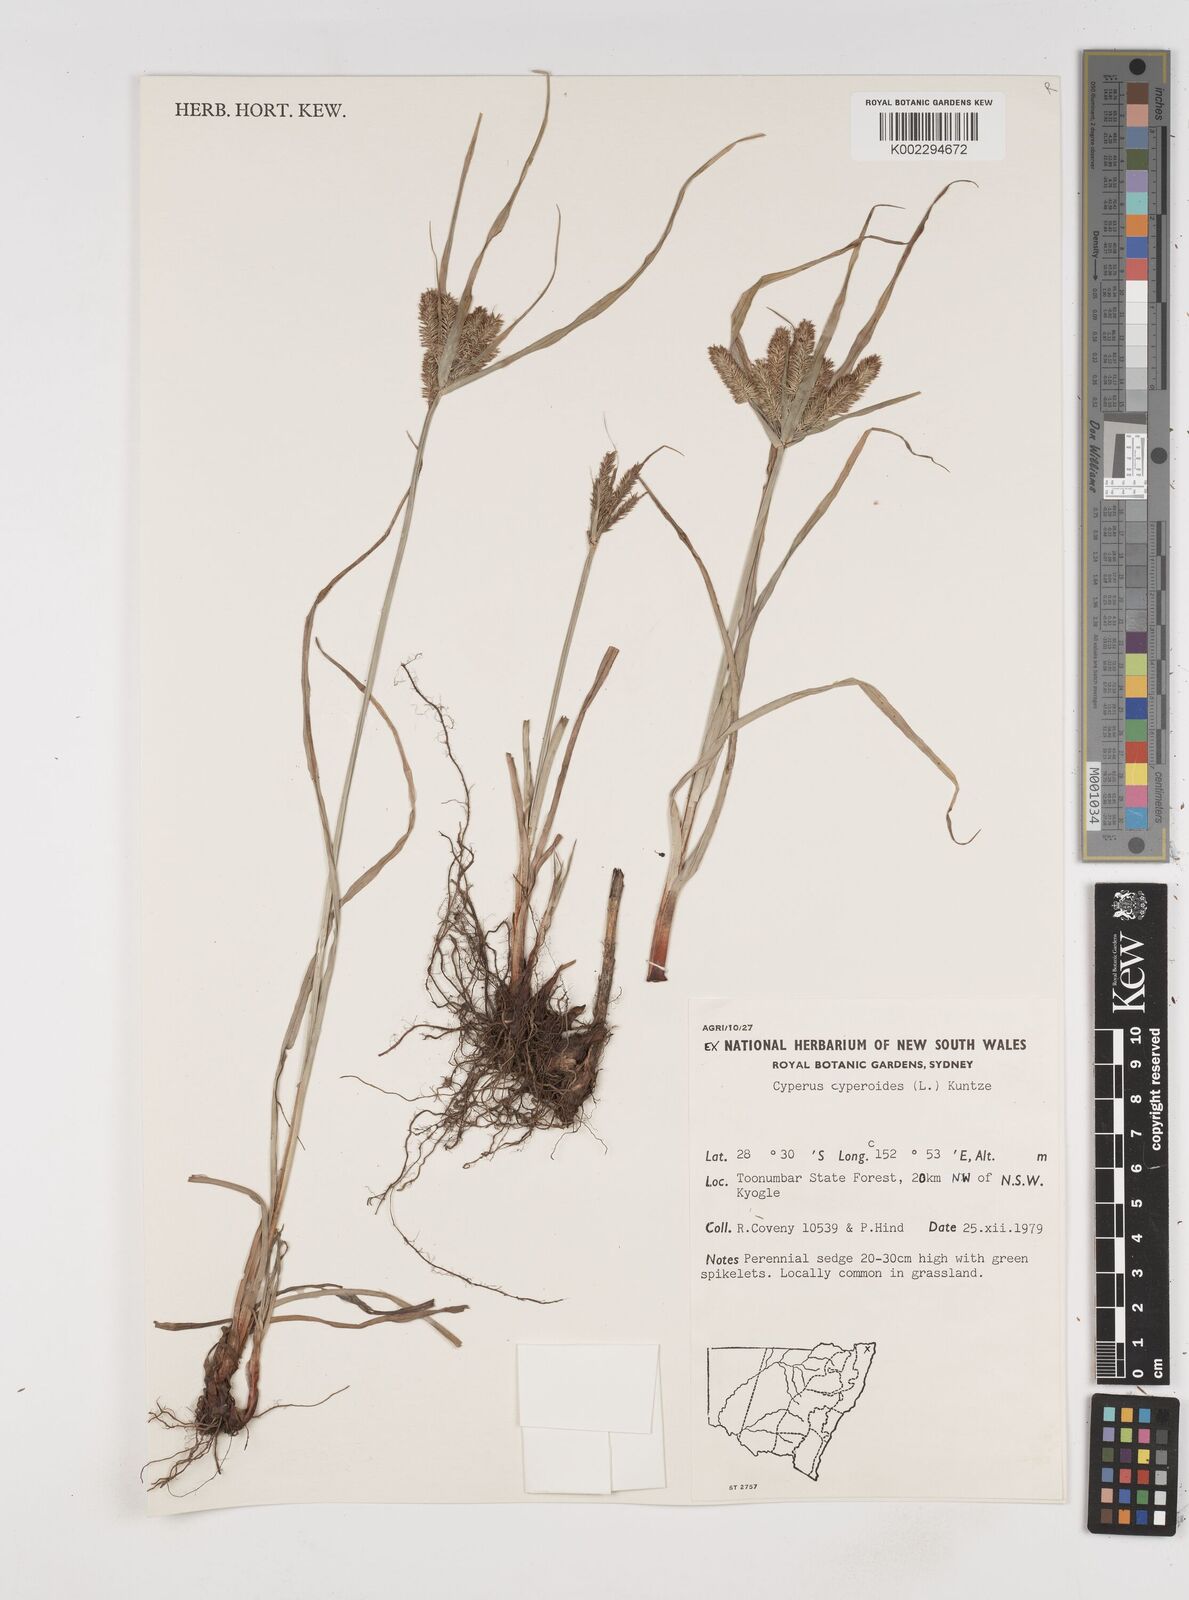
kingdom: Plantae
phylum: Tracheophyta
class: Liliopsida
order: Poales
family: Cyperaceae
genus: Cyperus
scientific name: Cyperus cyperoides
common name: Pacific island flat sedge
